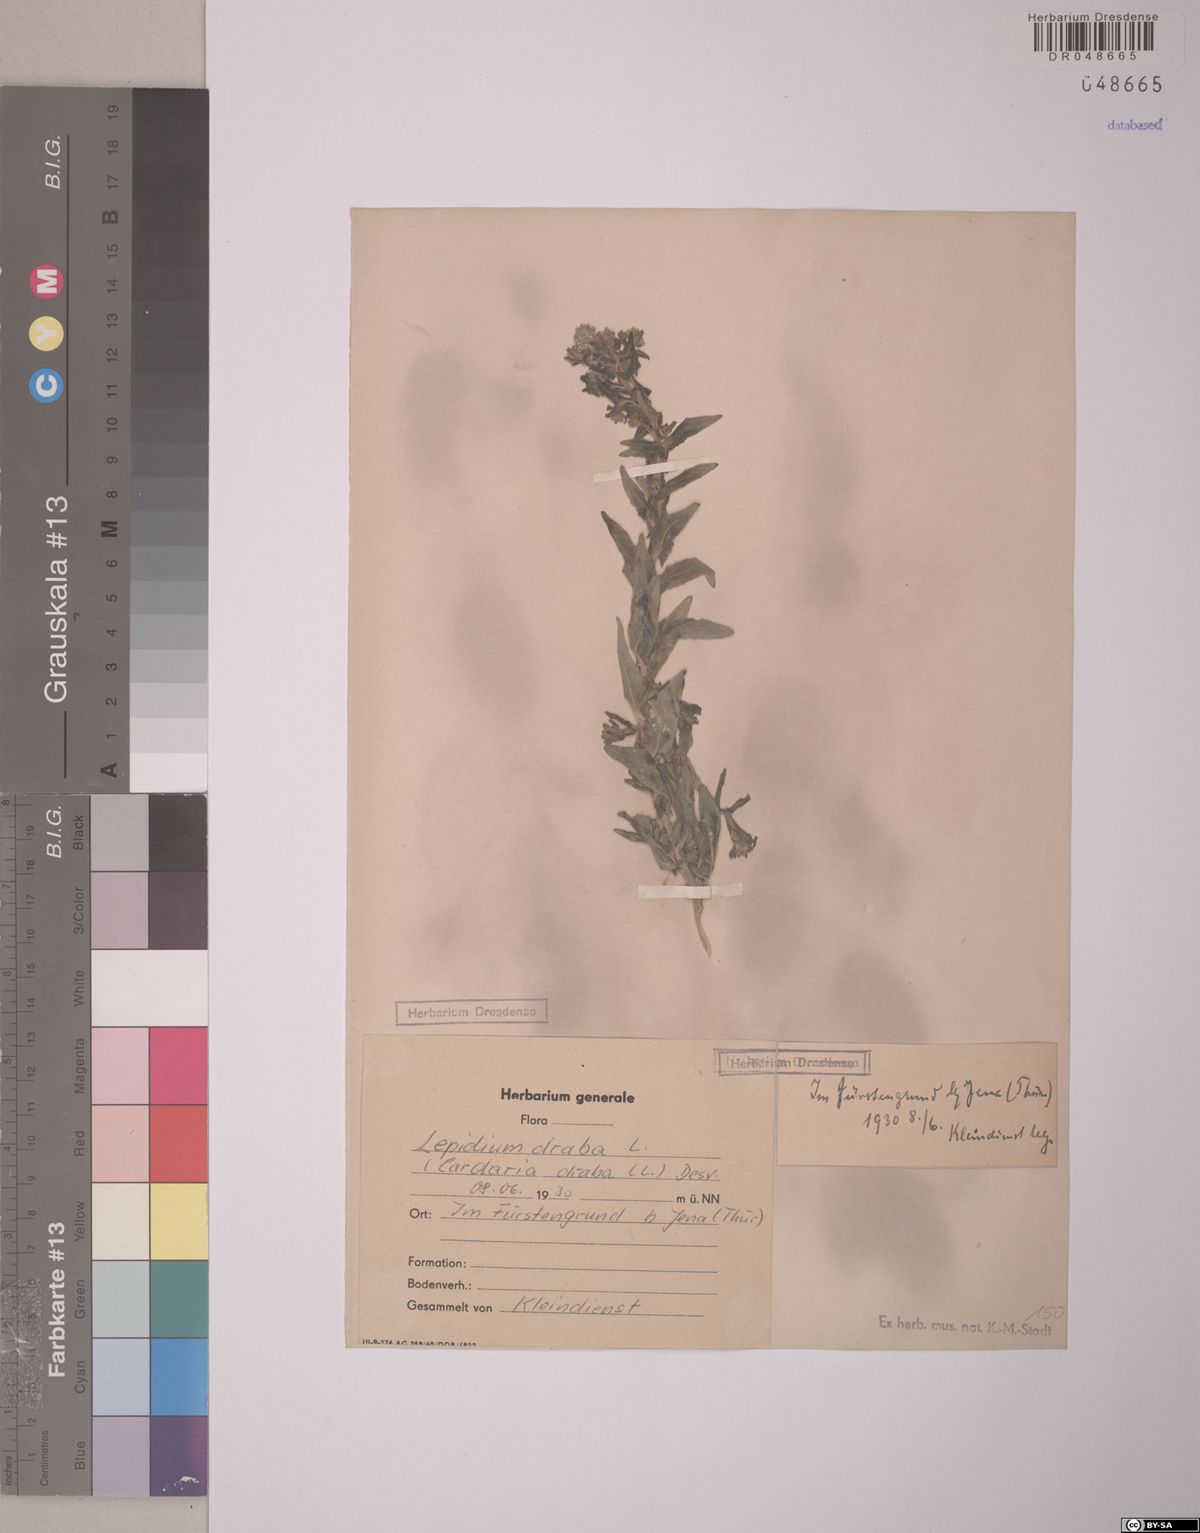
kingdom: Plantae
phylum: Tracheophyta
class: Magnoliopsida
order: Brassicales
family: Brassicaceae
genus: Lepidium
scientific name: Lepidium draba
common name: Hoary cress
